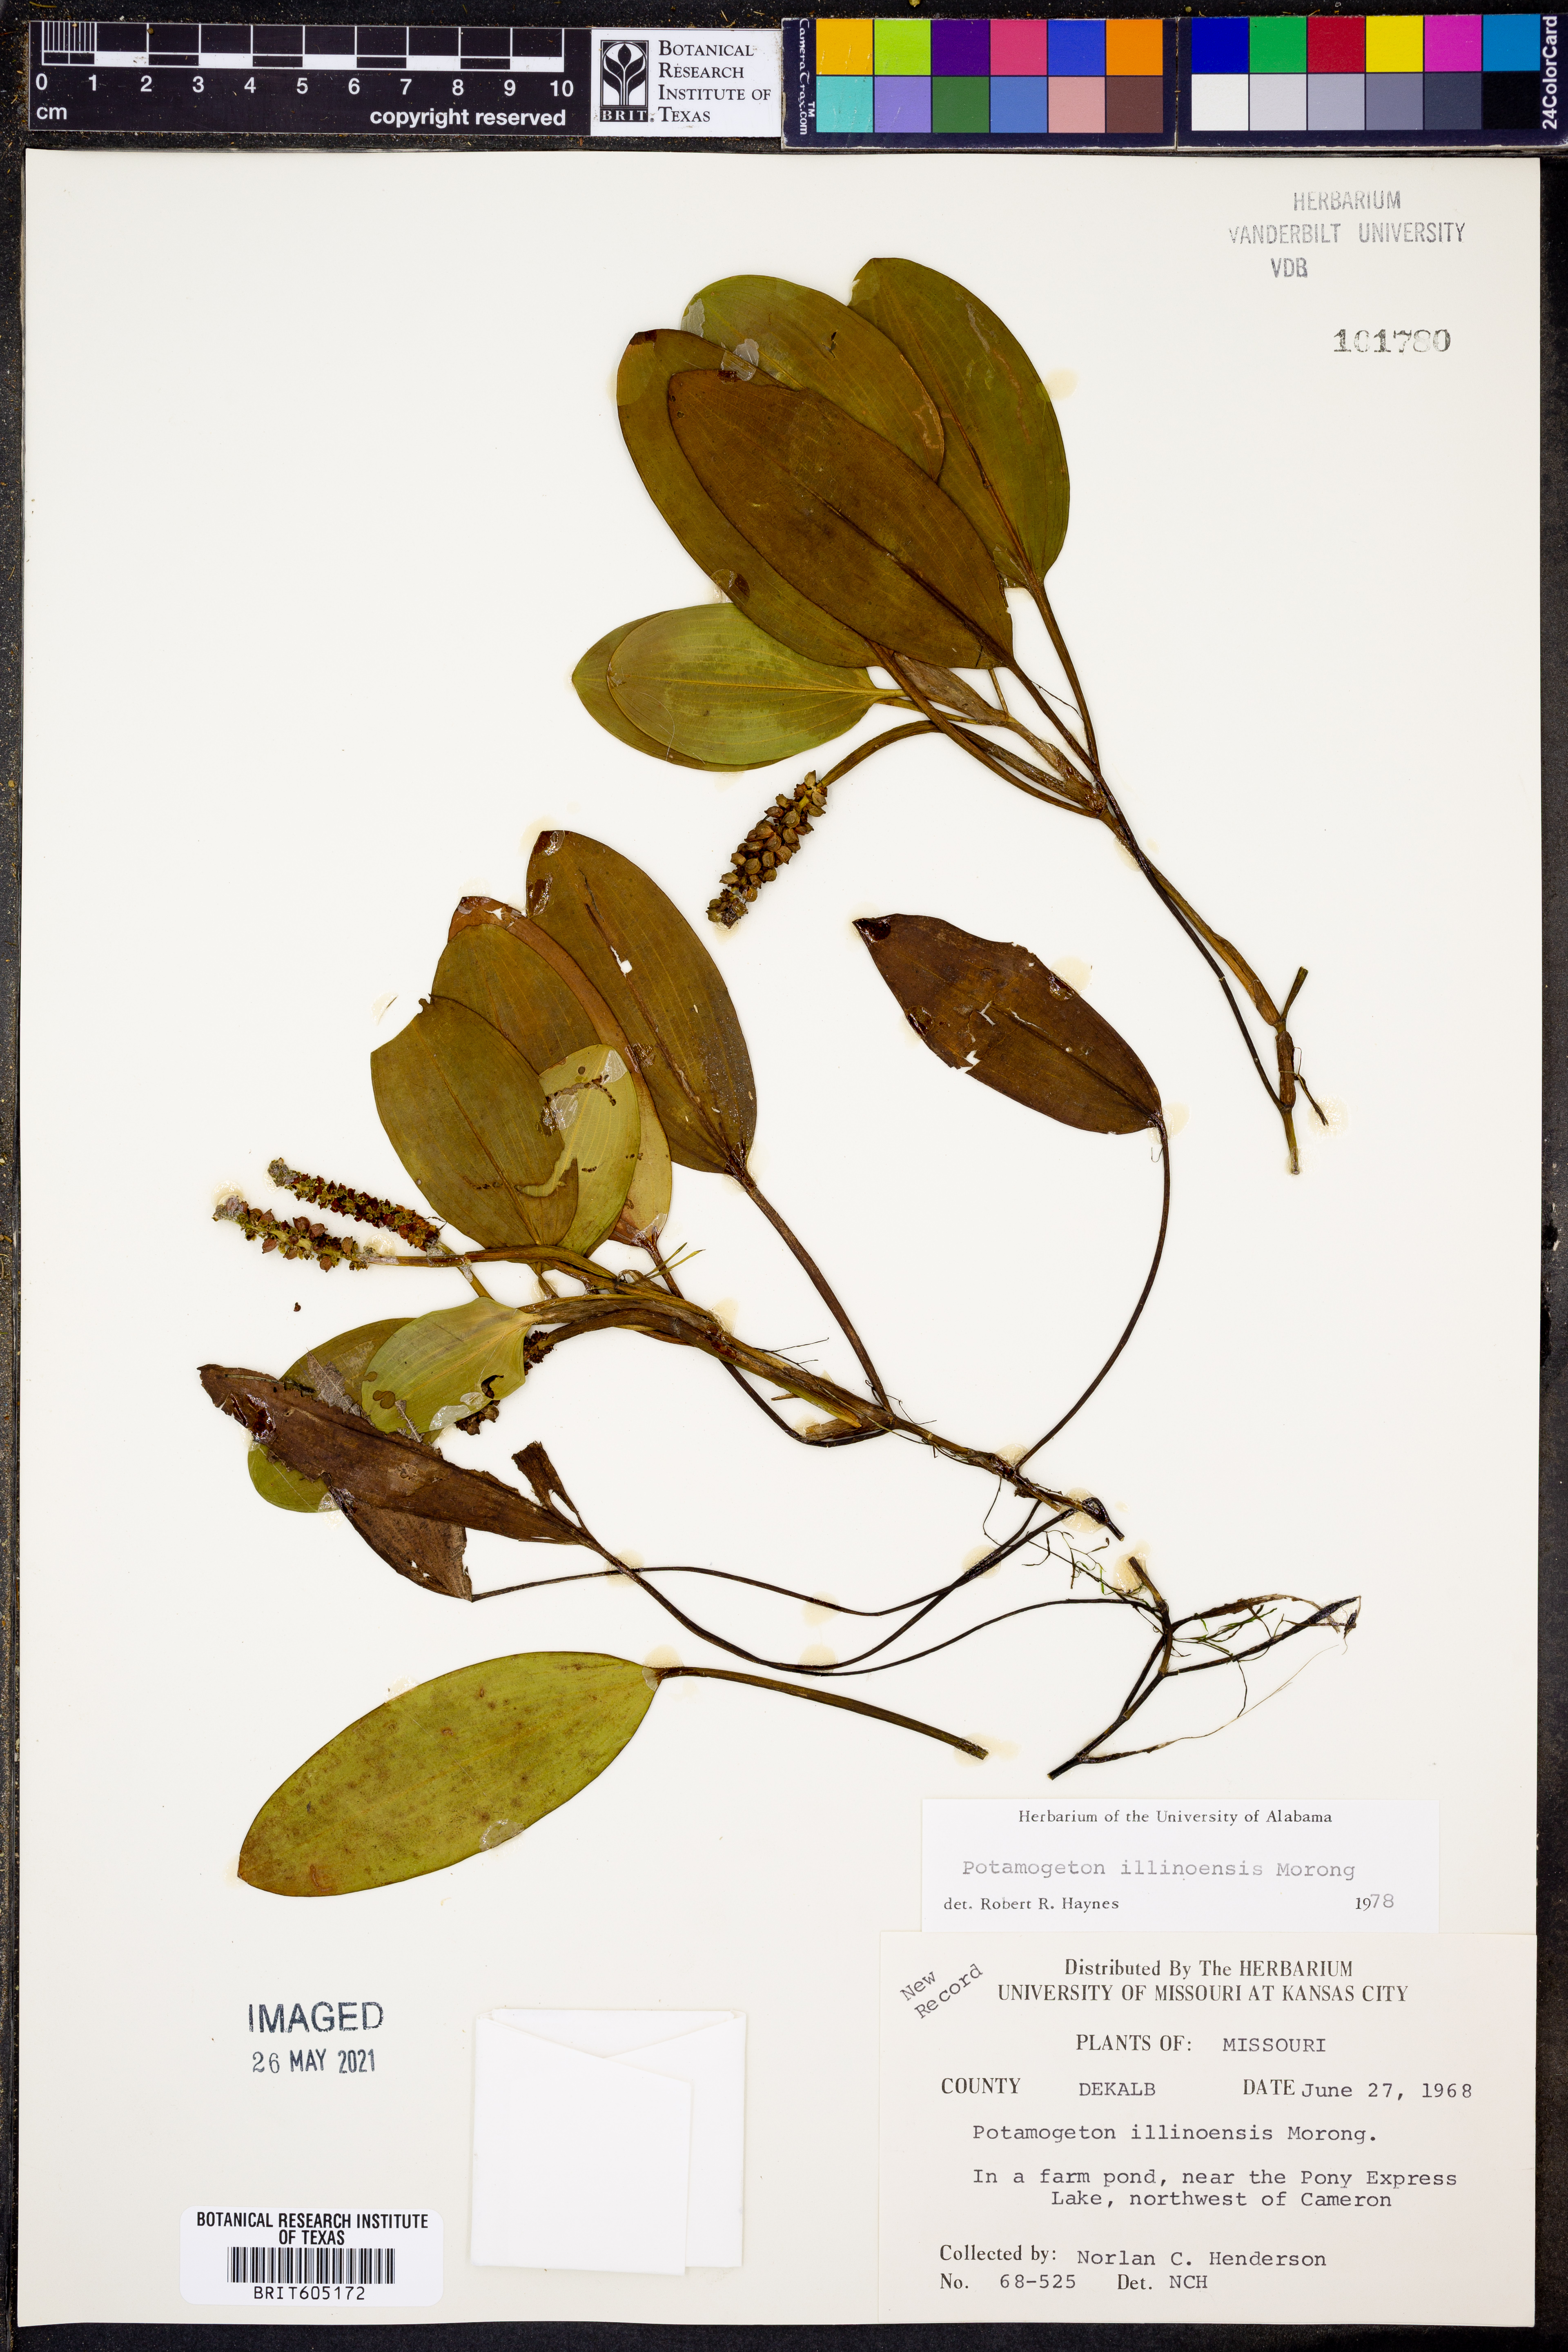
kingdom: Plantae
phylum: Tracheophyta
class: Liliopsida
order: Alismatales
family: Potamogetonaceae
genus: Potamogeton
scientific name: Potamogeton illinoensis
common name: Illinois pondweed
